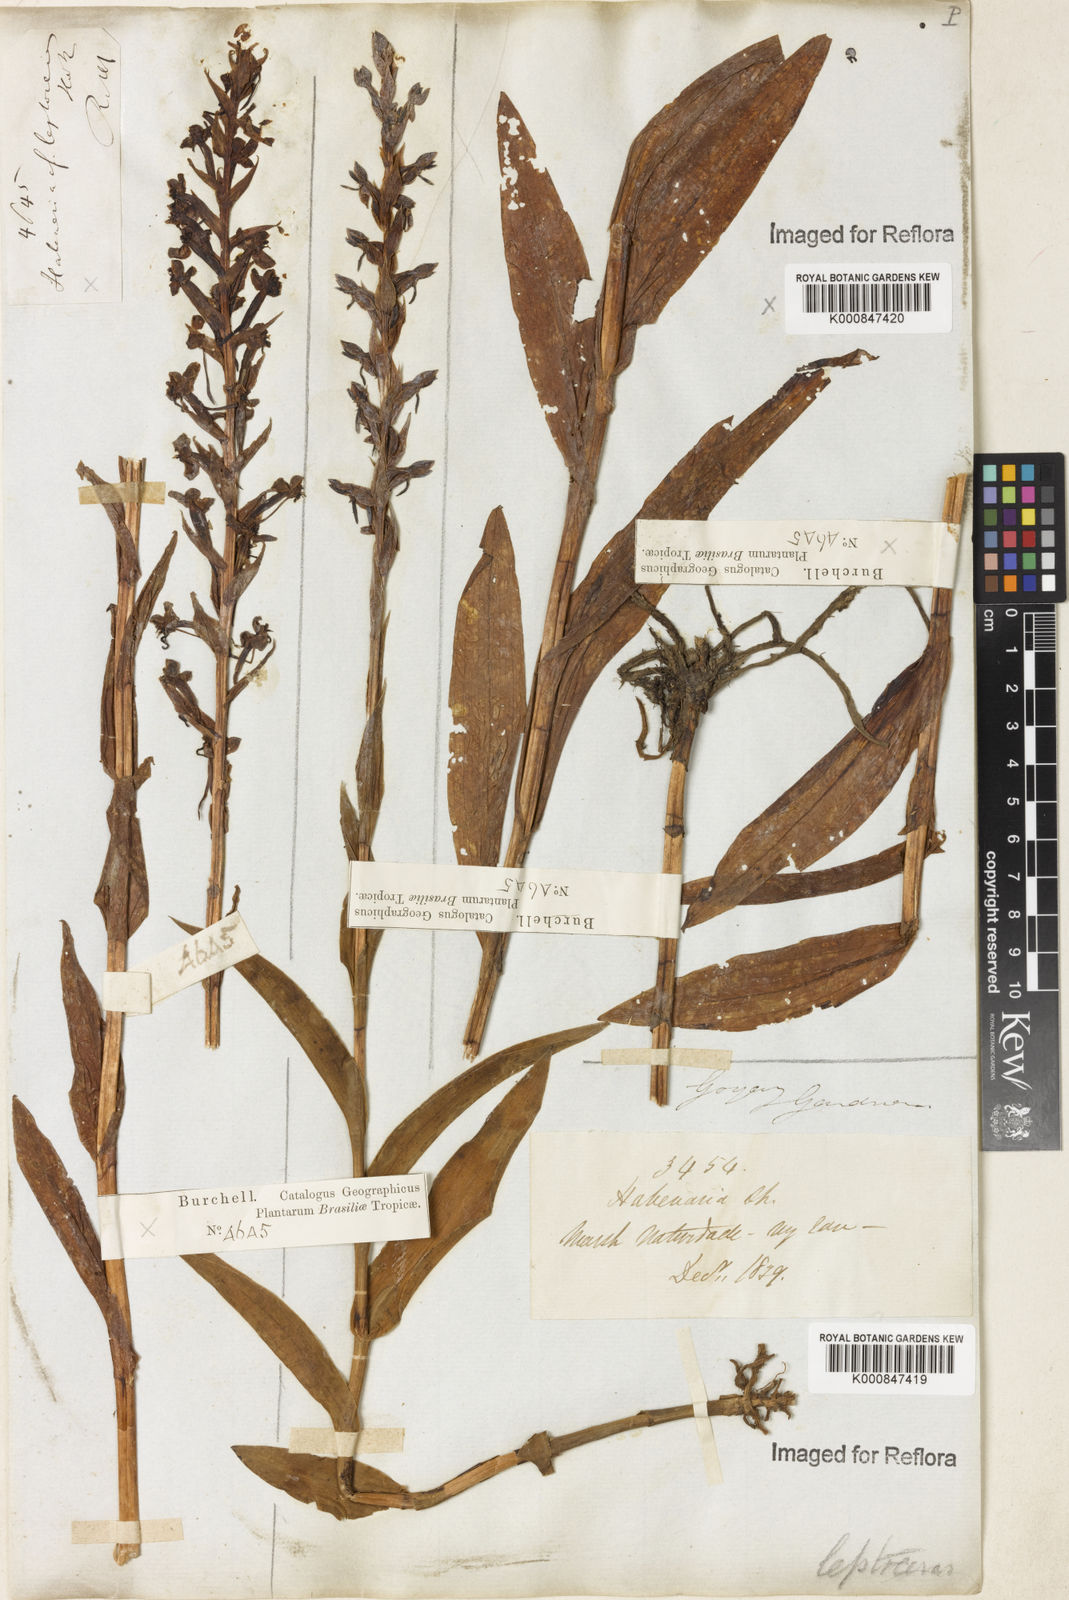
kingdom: Plantae
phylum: Tracheophyta
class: Liliopsida
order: Asparagales
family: Orchidaceae
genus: Habenaria
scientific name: Habenaria leptoceras
